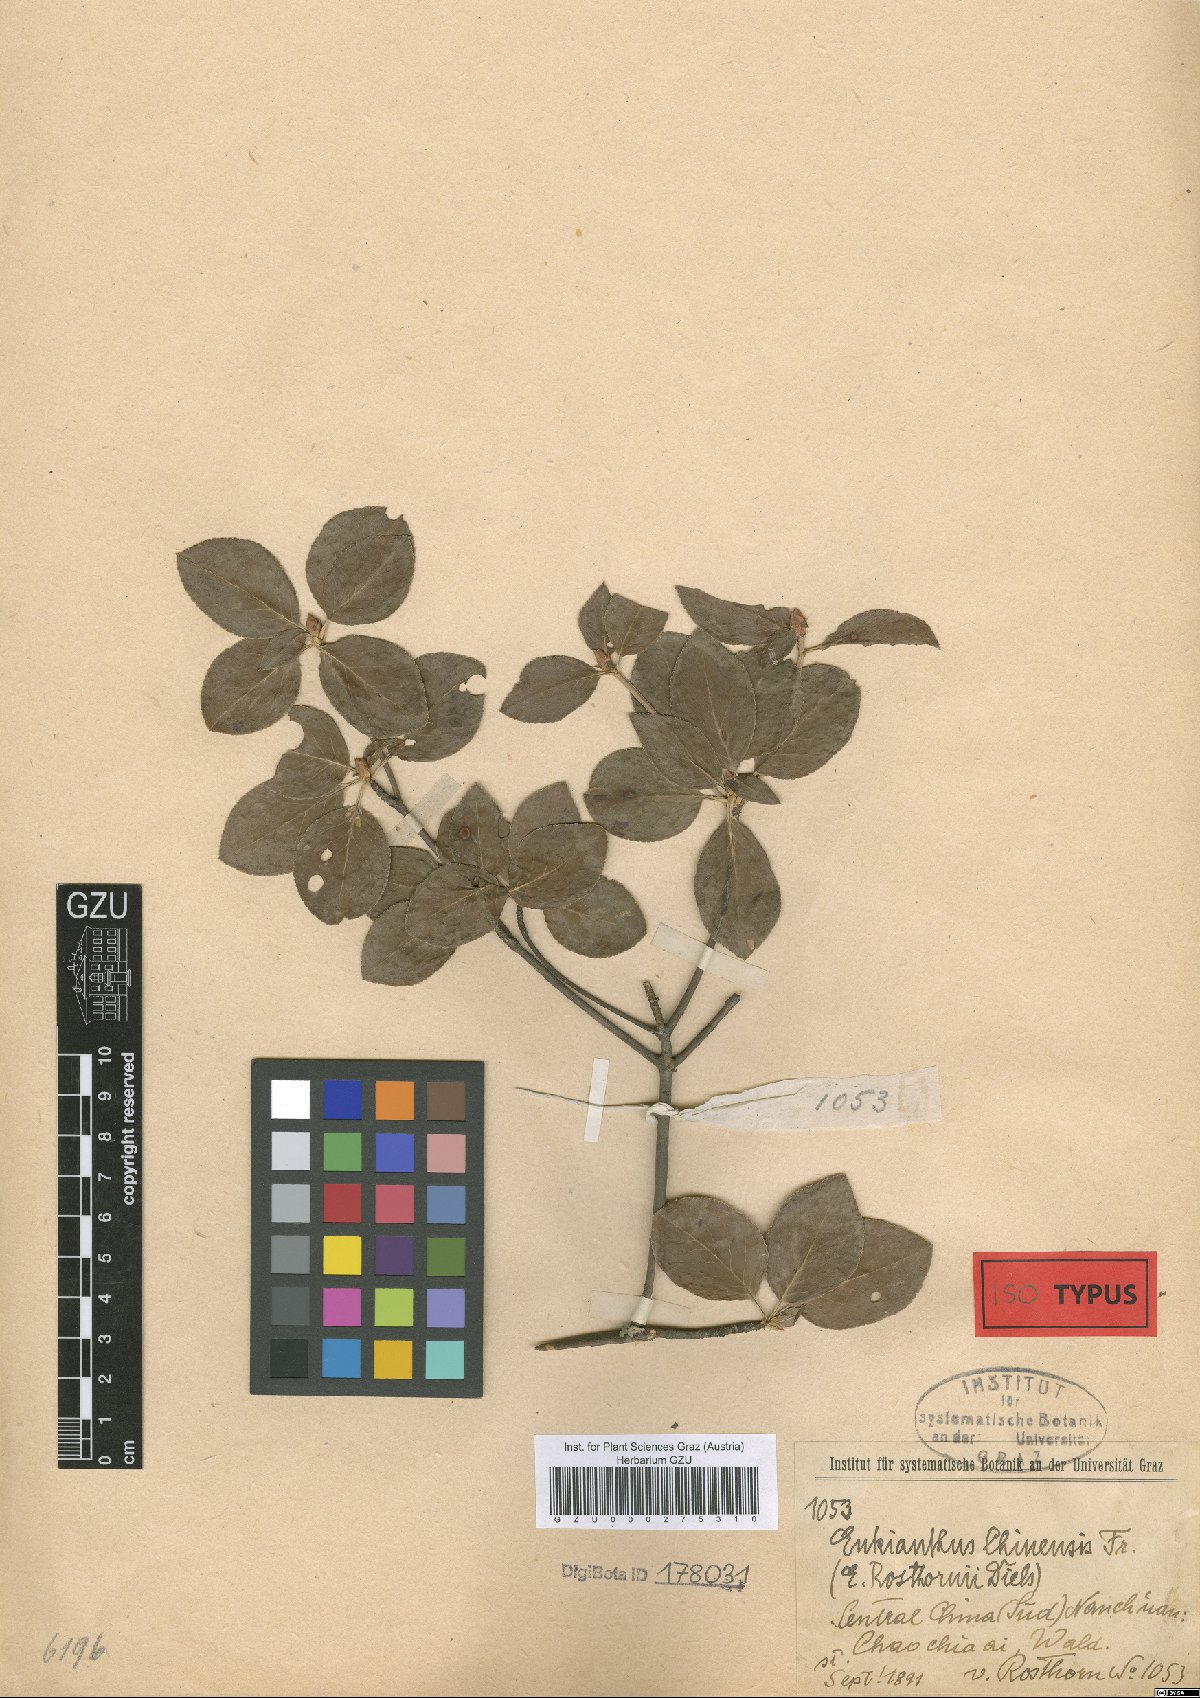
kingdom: Plantae
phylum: Tracheophyta
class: Magnoliopsida
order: Ericales
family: Ericaceae
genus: Enkianthus
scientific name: Enkianthus chinensis
